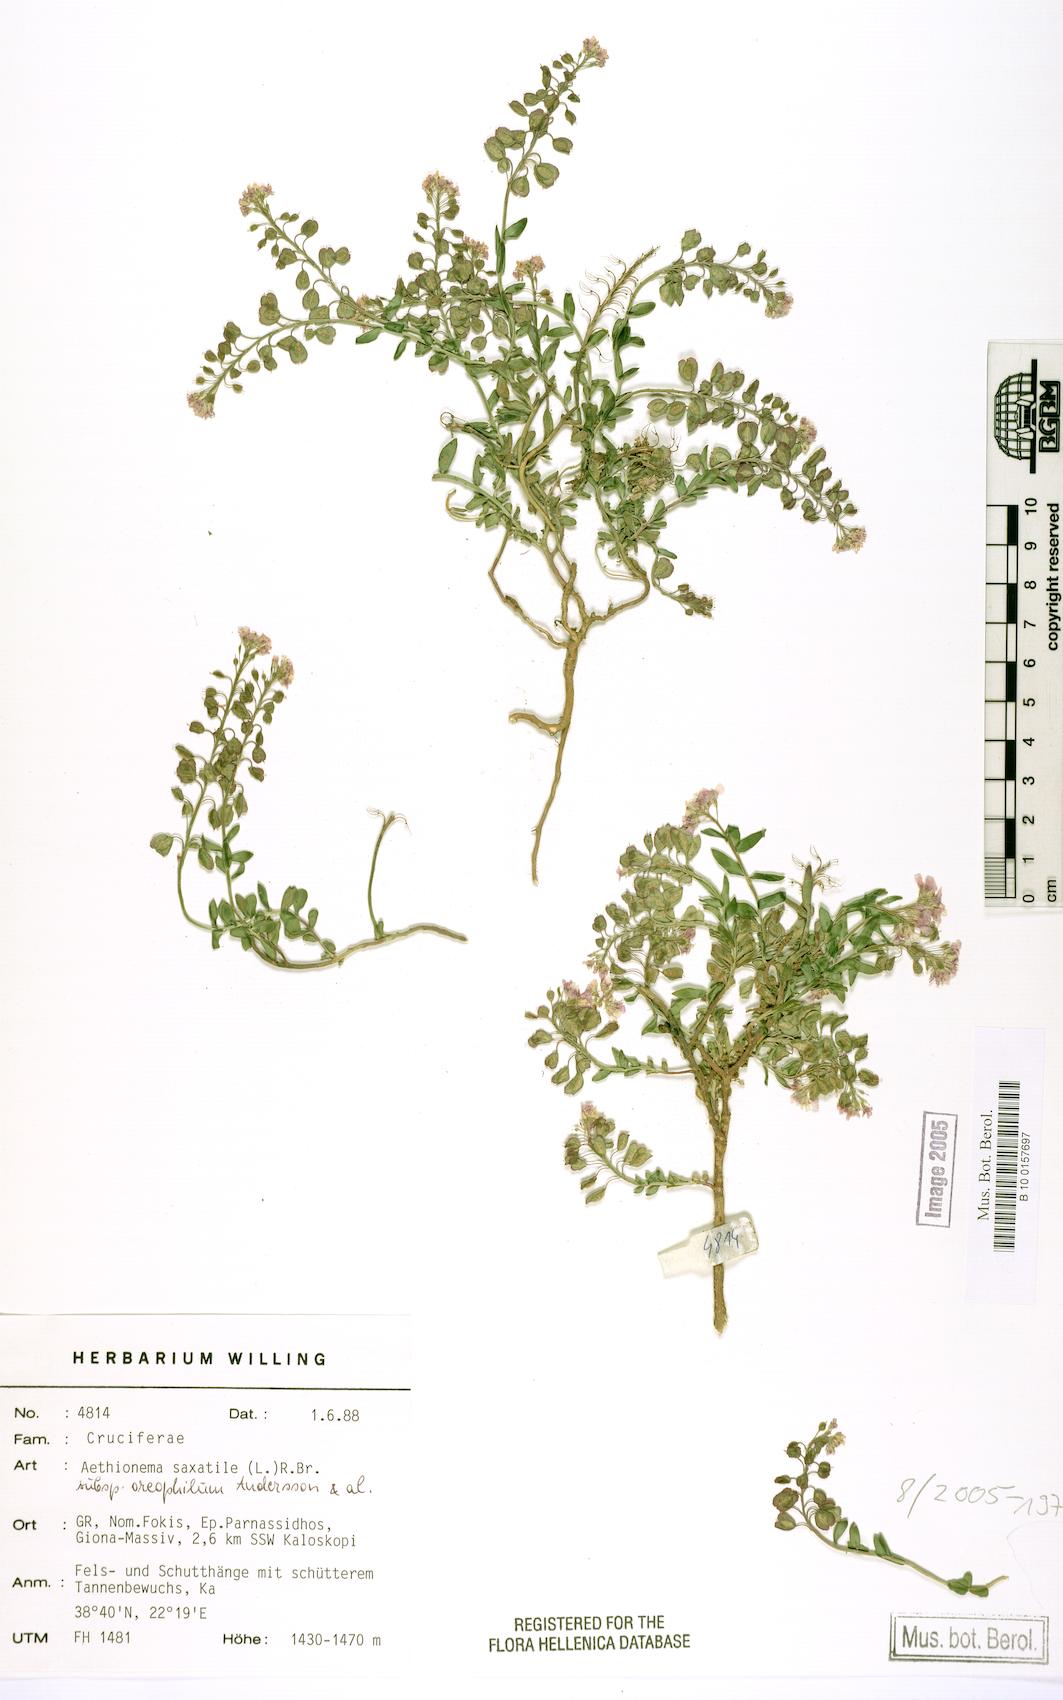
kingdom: Plantae
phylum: Tracheophyta
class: Magnoliopsida
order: Brassicales
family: Brassicaceae
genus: Aethionema
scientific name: Aethionema saxatile
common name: Burnt candytuft
